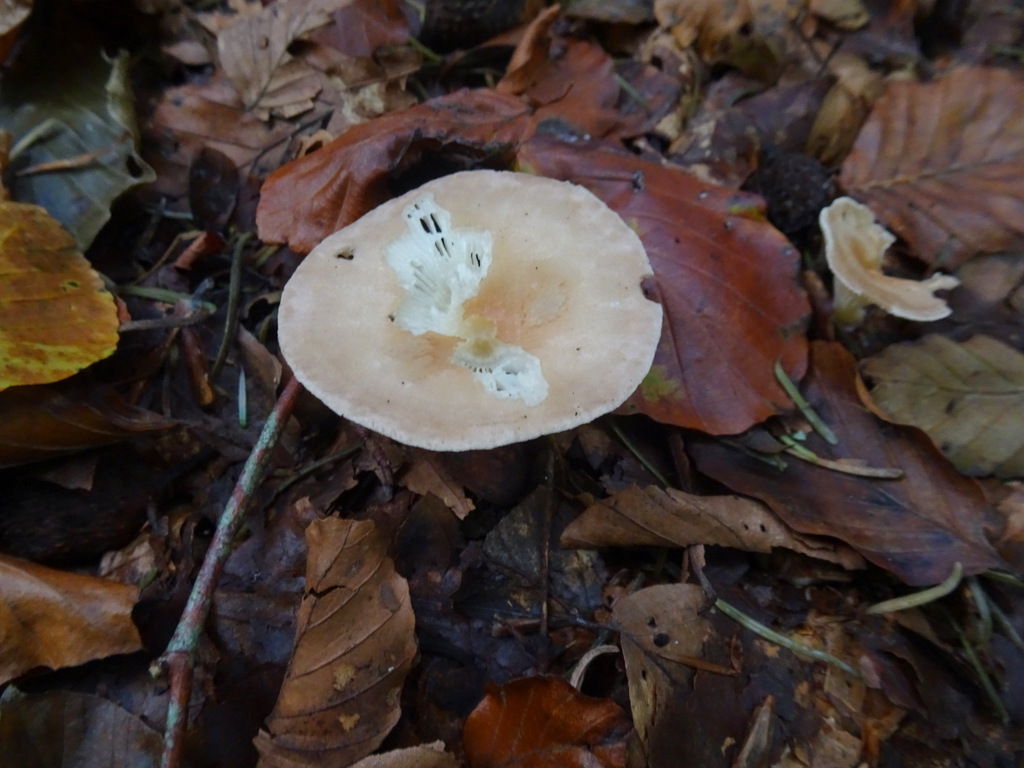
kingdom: Fungi
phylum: Basidiomycota
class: Agaricomycetes
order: Agaricales
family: Tricholomataceae
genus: Infundibulicybe
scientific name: Infundibulicybe gibba
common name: almindelig tragthat
